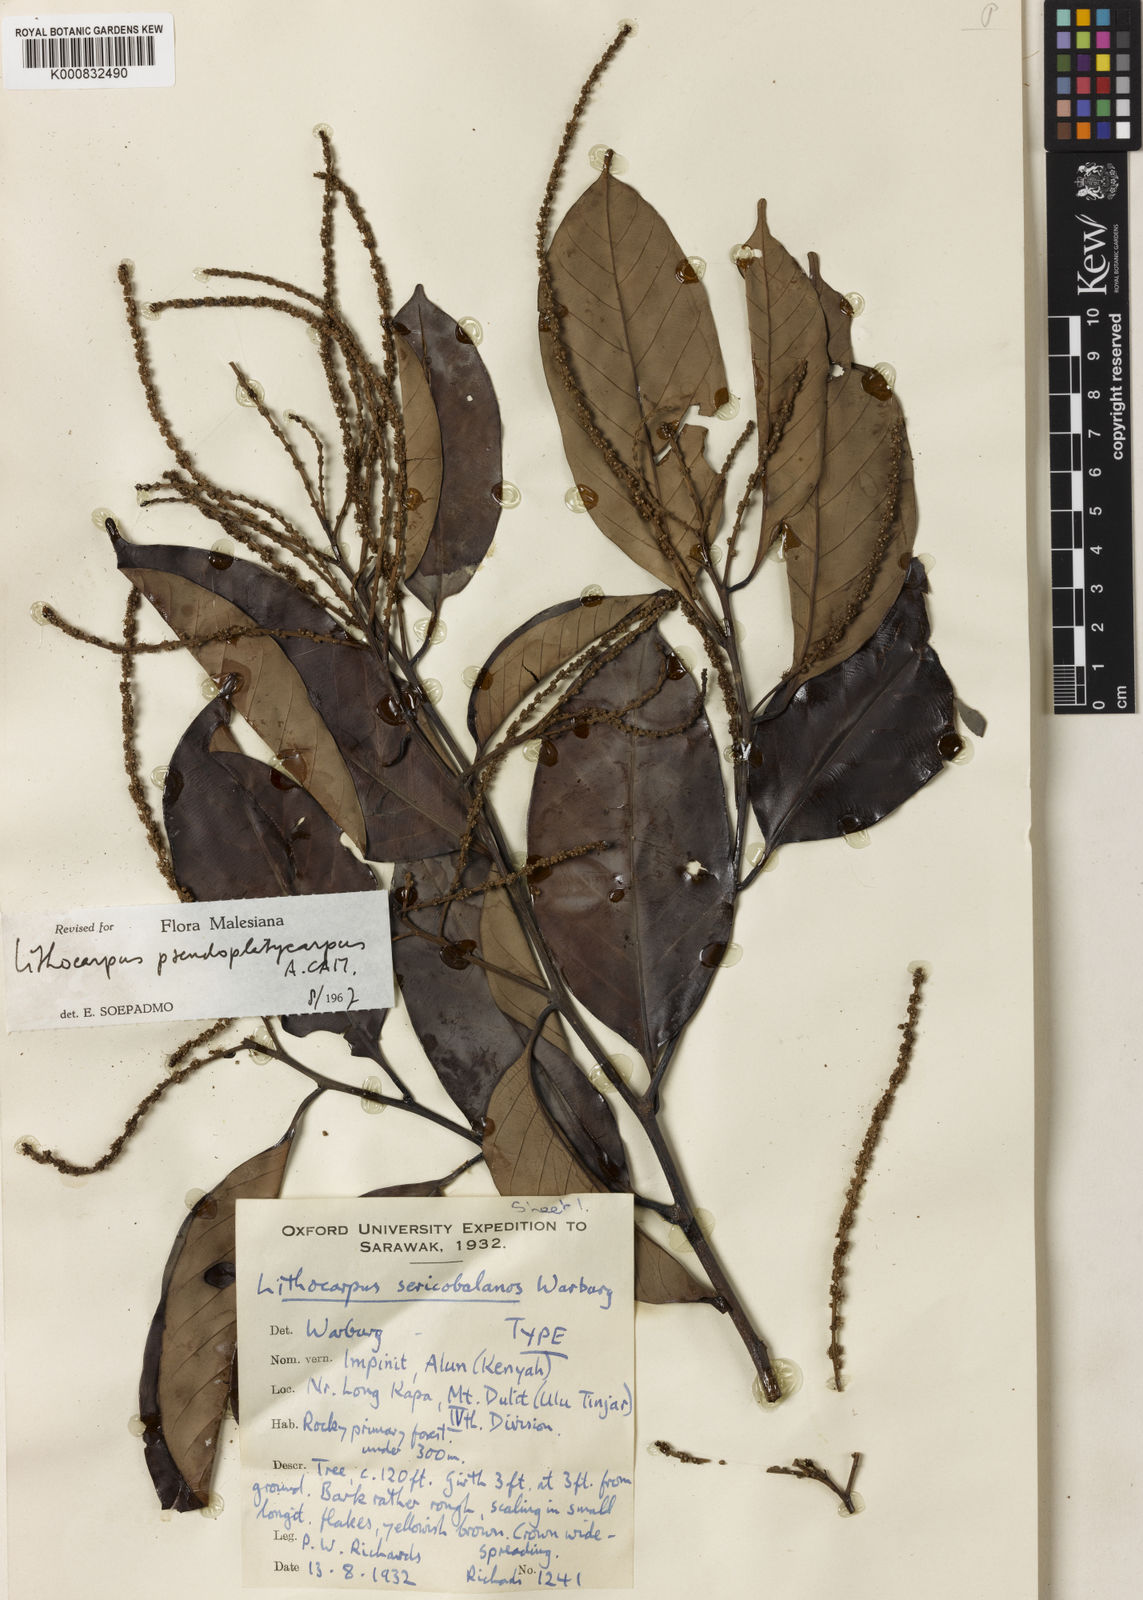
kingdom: Plantae
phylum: Tracheophyta
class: Magnoliopsida
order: Fagales
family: Fagaceae
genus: Lithocarpus
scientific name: Lithocarpus sericobalanos
